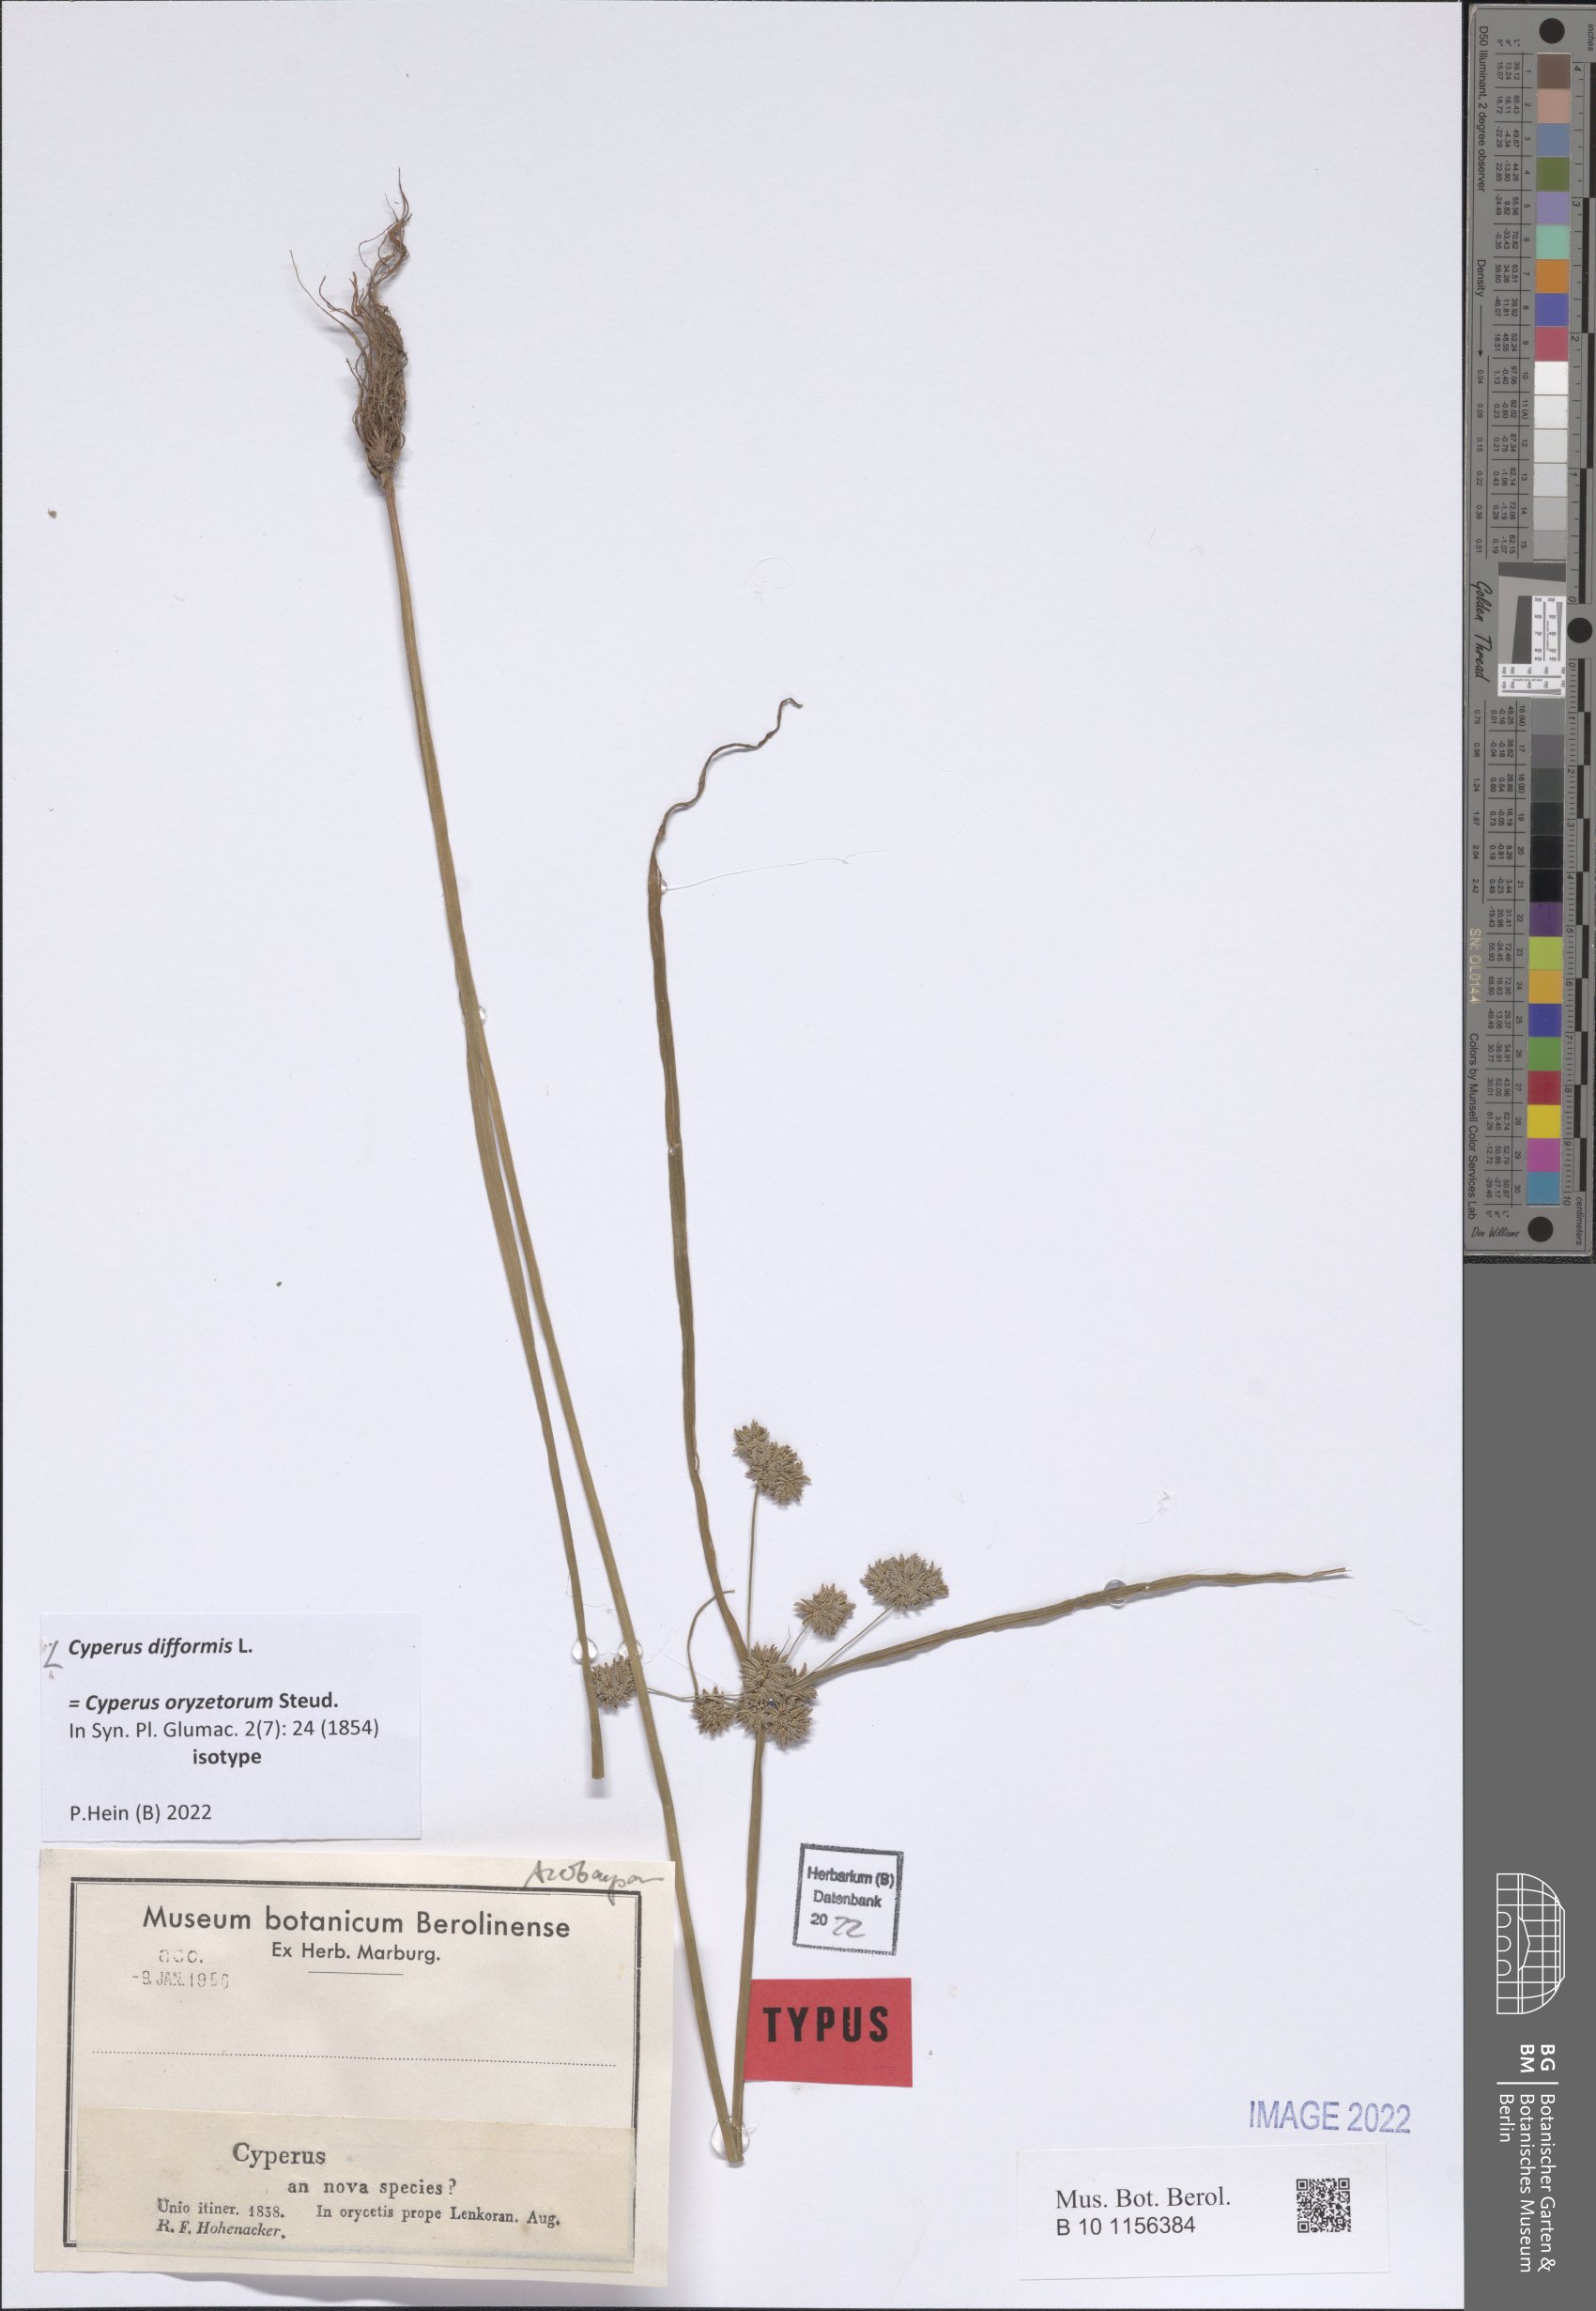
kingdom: Plantae
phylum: Tracheophyta
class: Liliopsida
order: Poales
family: Cyperaceae
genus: Cyperus
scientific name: Cyperus difformis
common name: Variable flatsedge
